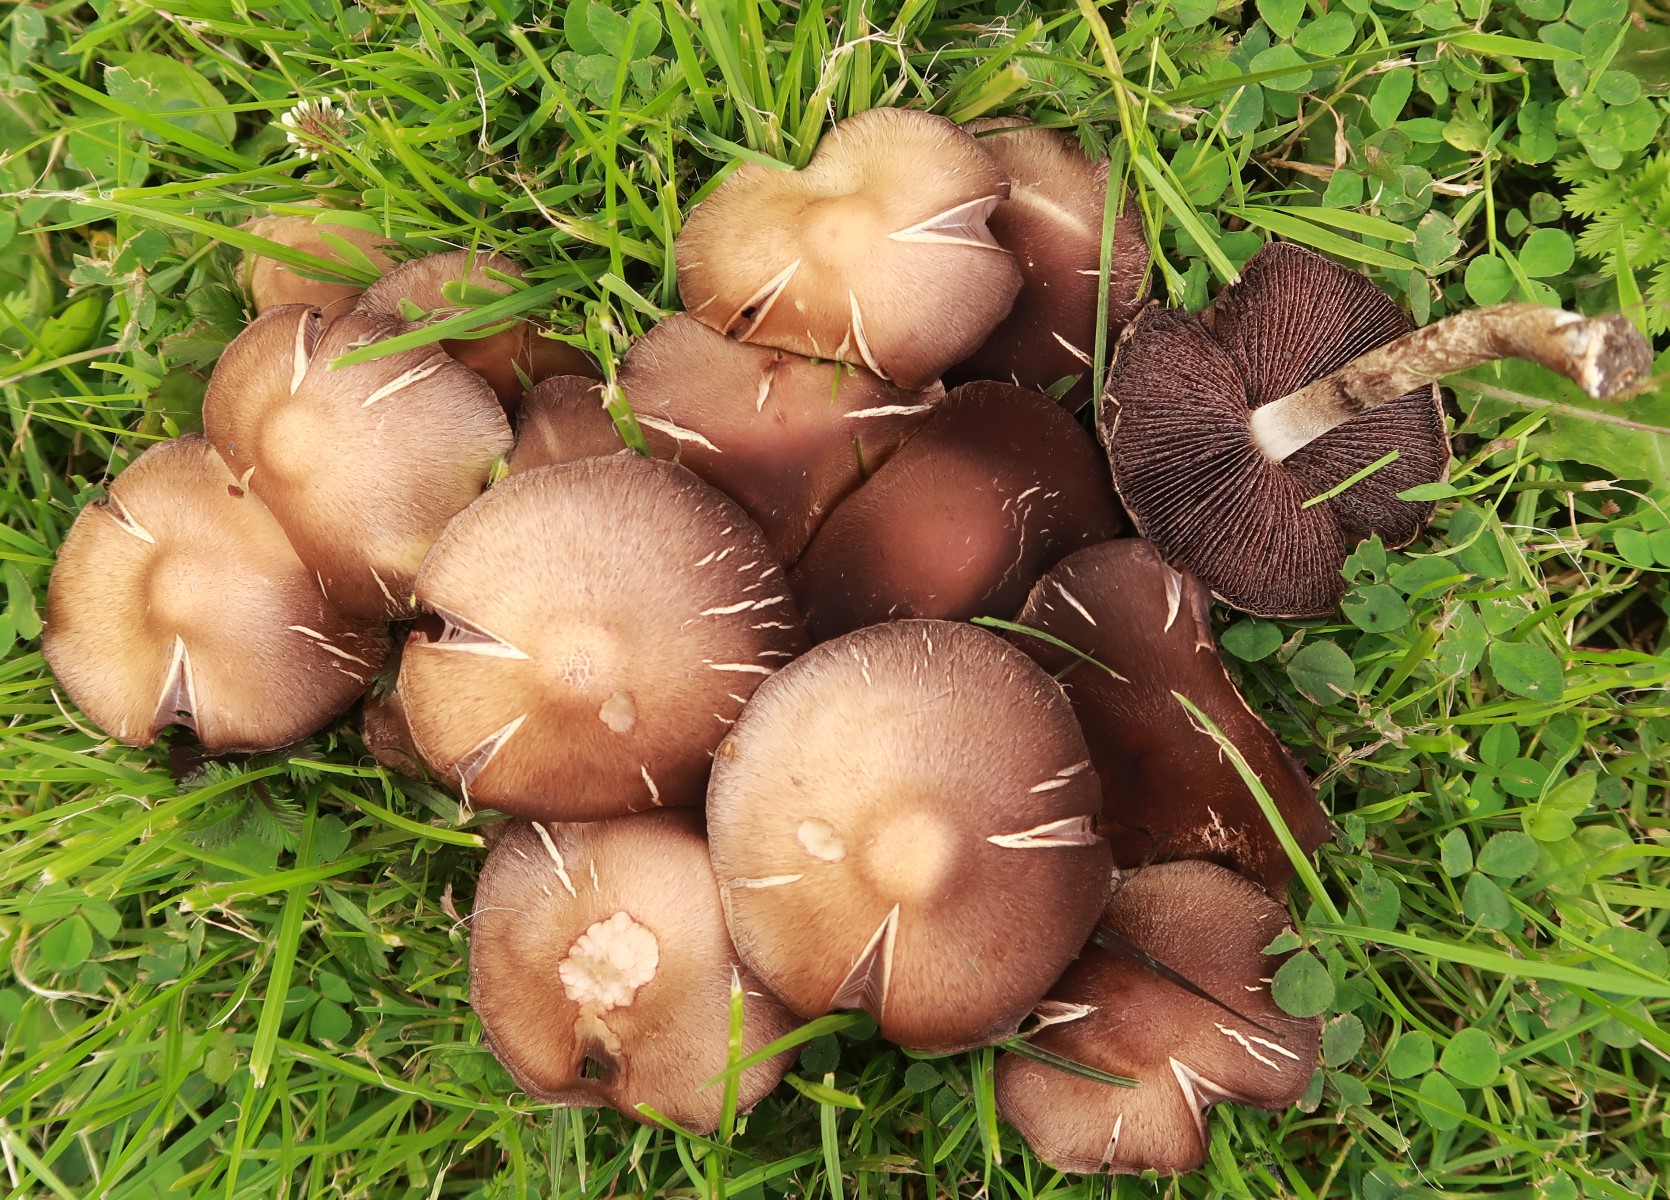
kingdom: Fungi
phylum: Basidiomycota
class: Agaricomycetes
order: Agaricales
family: Psathyrellaceae
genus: Lacrymaria
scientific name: Lacrymaria lacrymabunda
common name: grædende mørkhat
